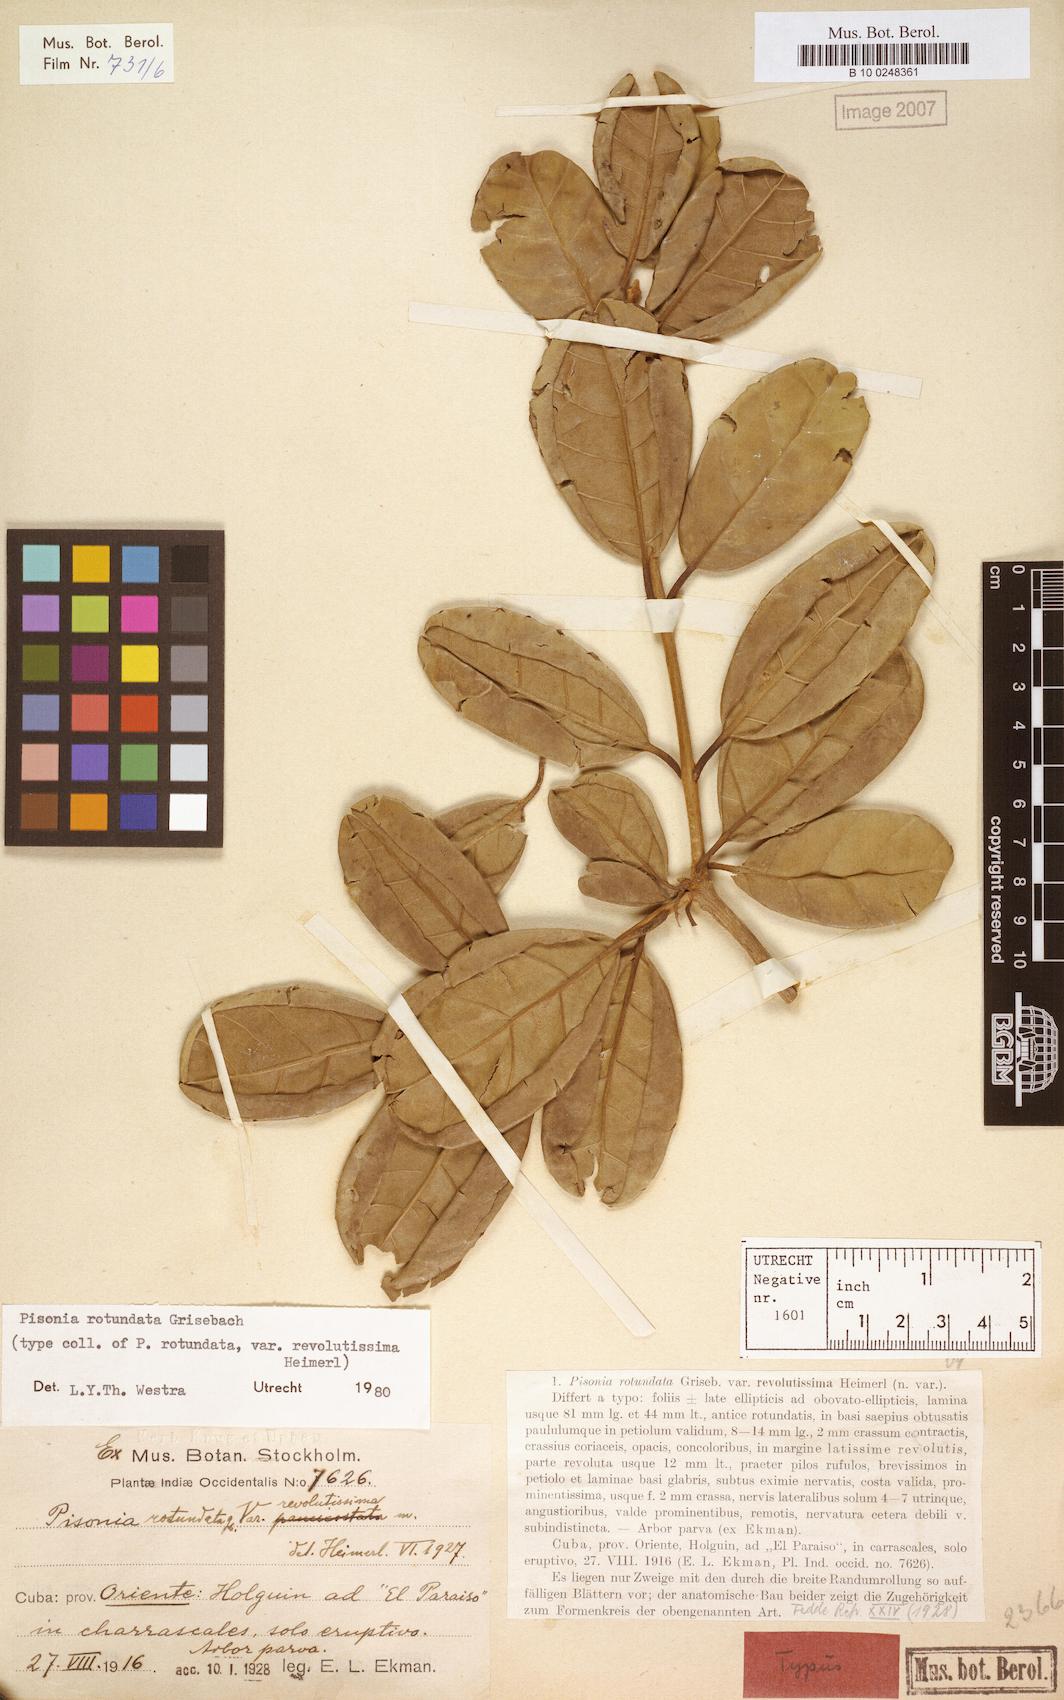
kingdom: Plantae
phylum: Tracheophyta
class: Magnoliopsida
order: Caryophyllales
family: Nyctaginaceae
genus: Pisonia
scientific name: Pisonia rotundata
